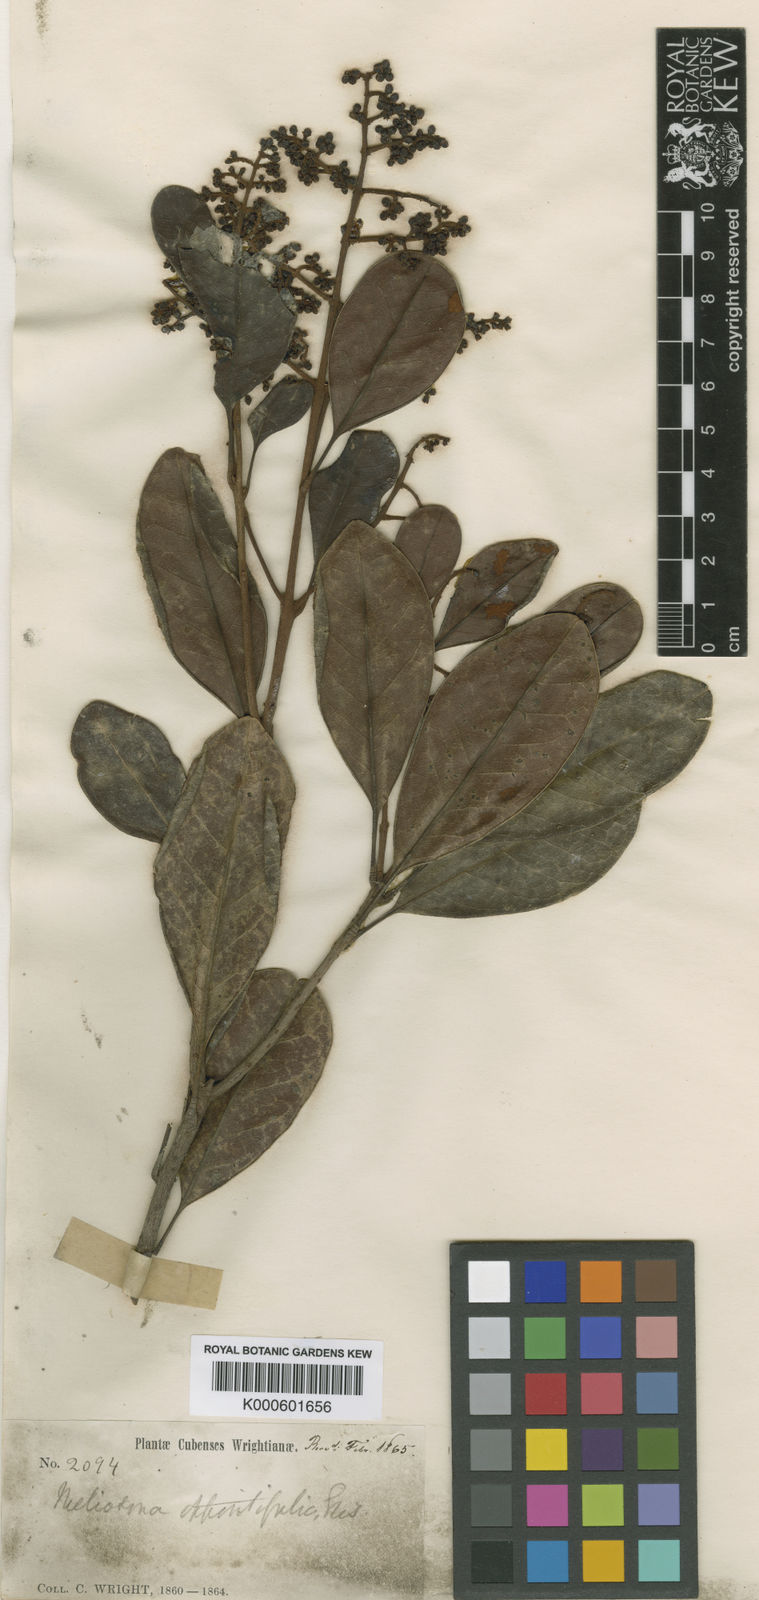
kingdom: Plantae
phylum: Tracheophyta
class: Magnoliopsida
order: Proteales
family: Sabiaceae
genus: Meliosma
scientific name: Meliosma oppositifolia
